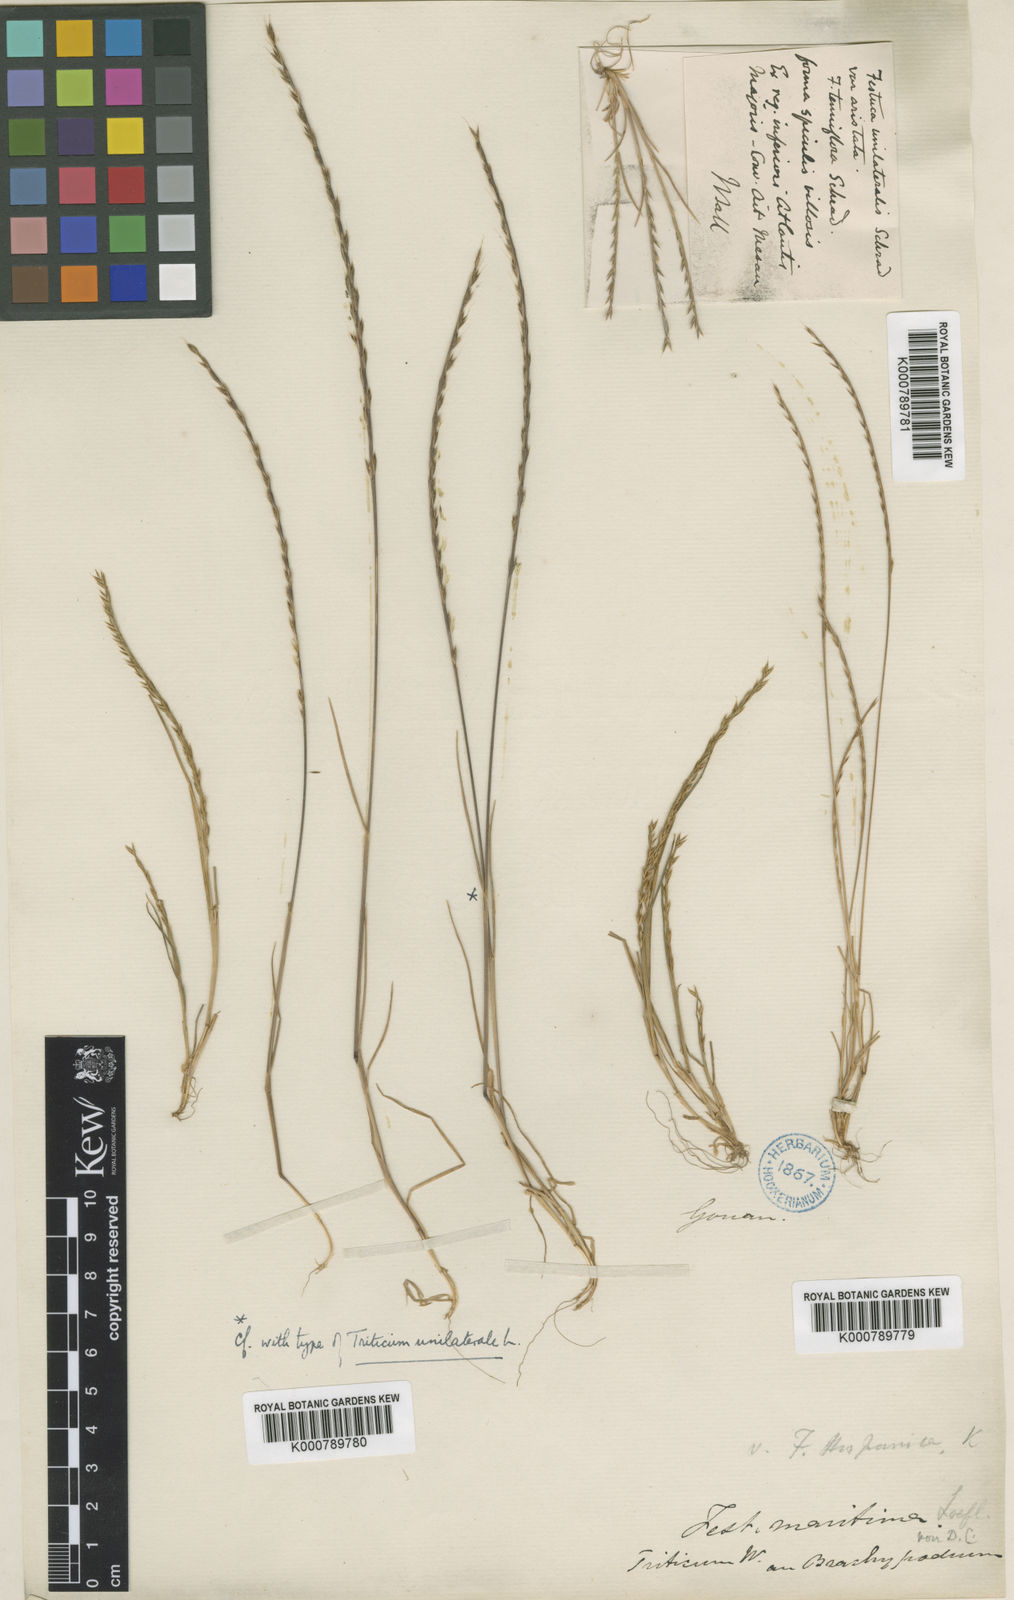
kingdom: Plantae
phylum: Tracheophyta
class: Liliopsida
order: Poales
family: Poaceae
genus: Festuca
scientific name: Festuca maritima
